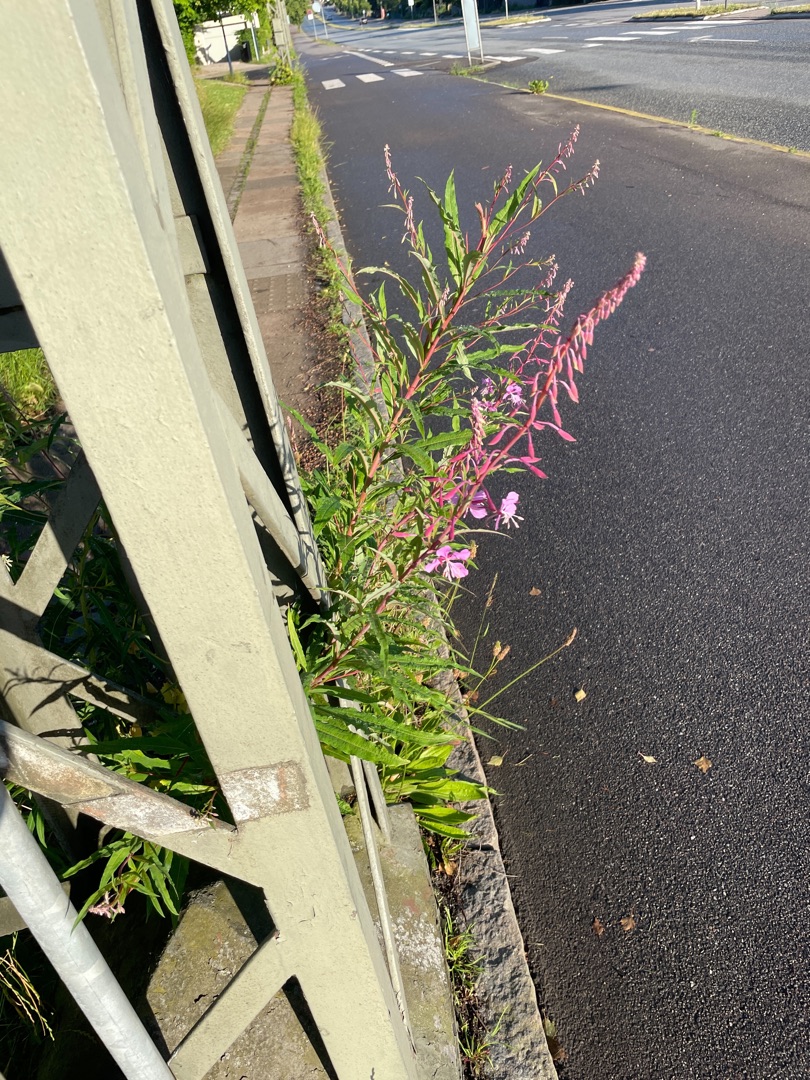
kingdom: Plantae
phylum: Tracheophyta
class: Magnoliopsida
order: Myrtales
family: Onagraceae
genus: Chamaenerion
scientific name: Chamaenerion angustifolium
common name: Gederams
